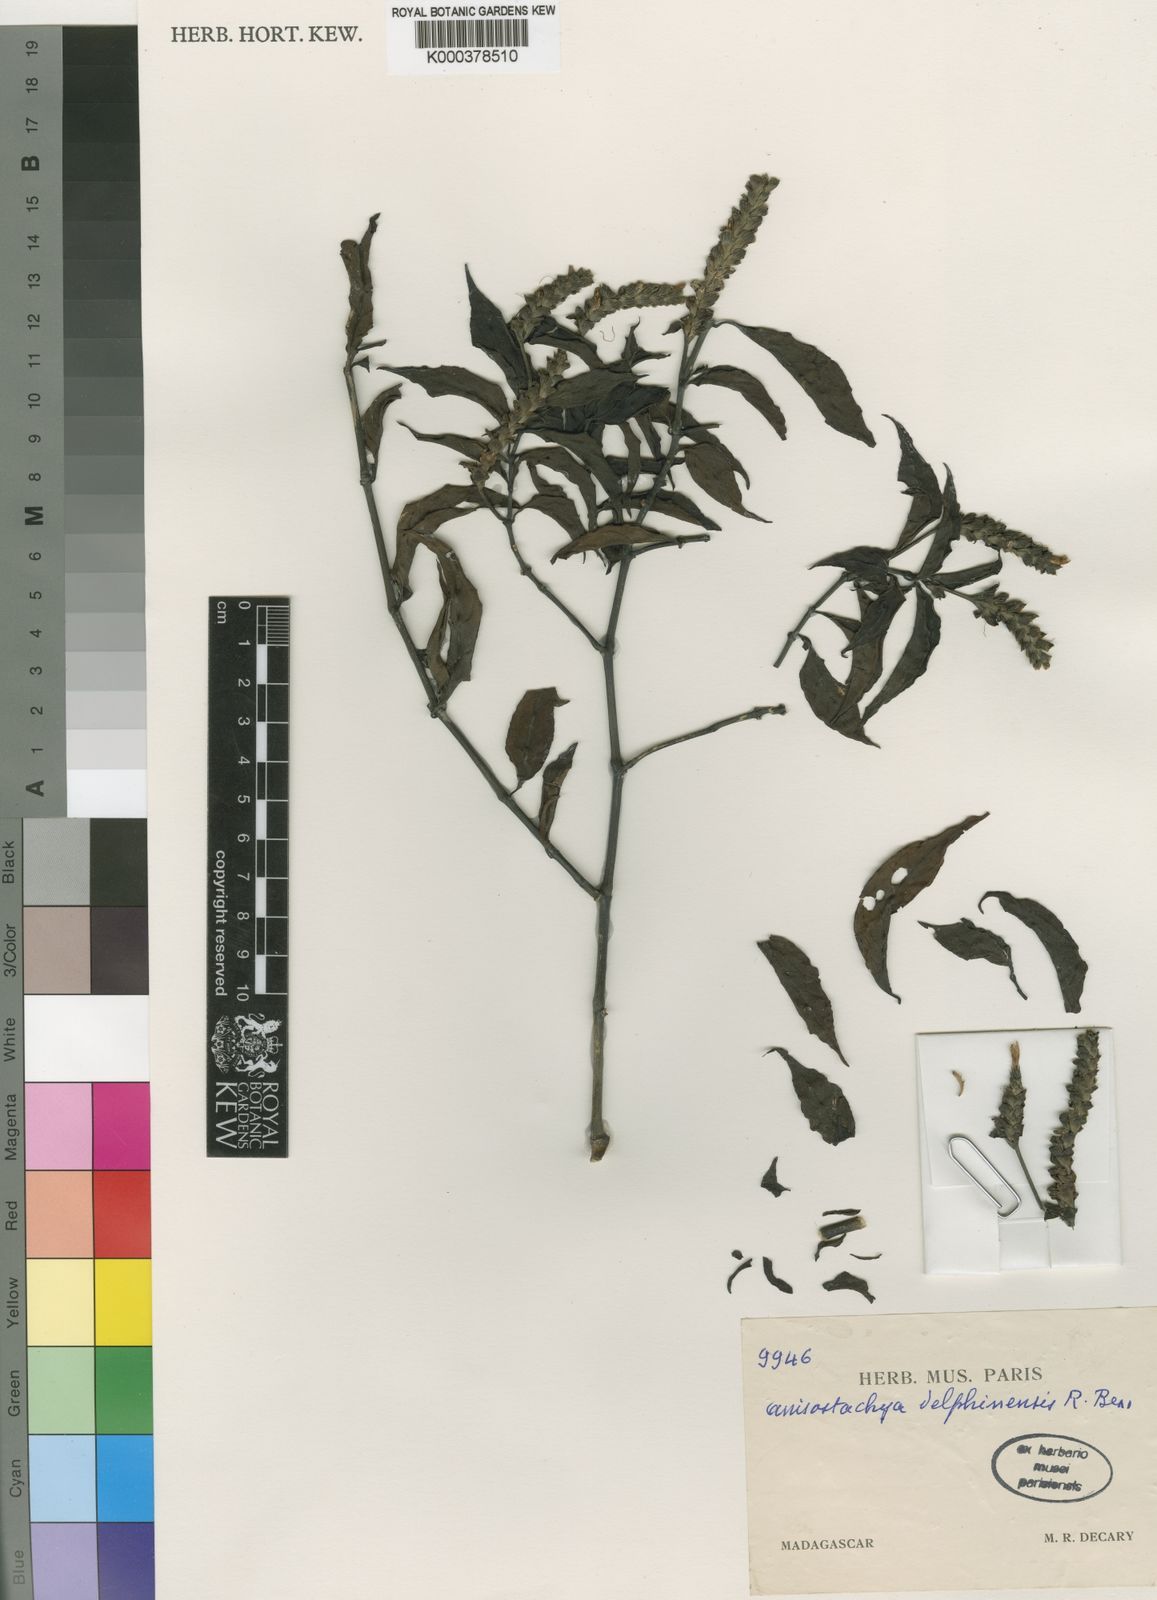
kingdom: Plantae
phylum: Tracheophyta
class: Magnoliopsida
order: Lamiales
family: Acanthaceae
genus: Justicia
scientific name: Justicia
